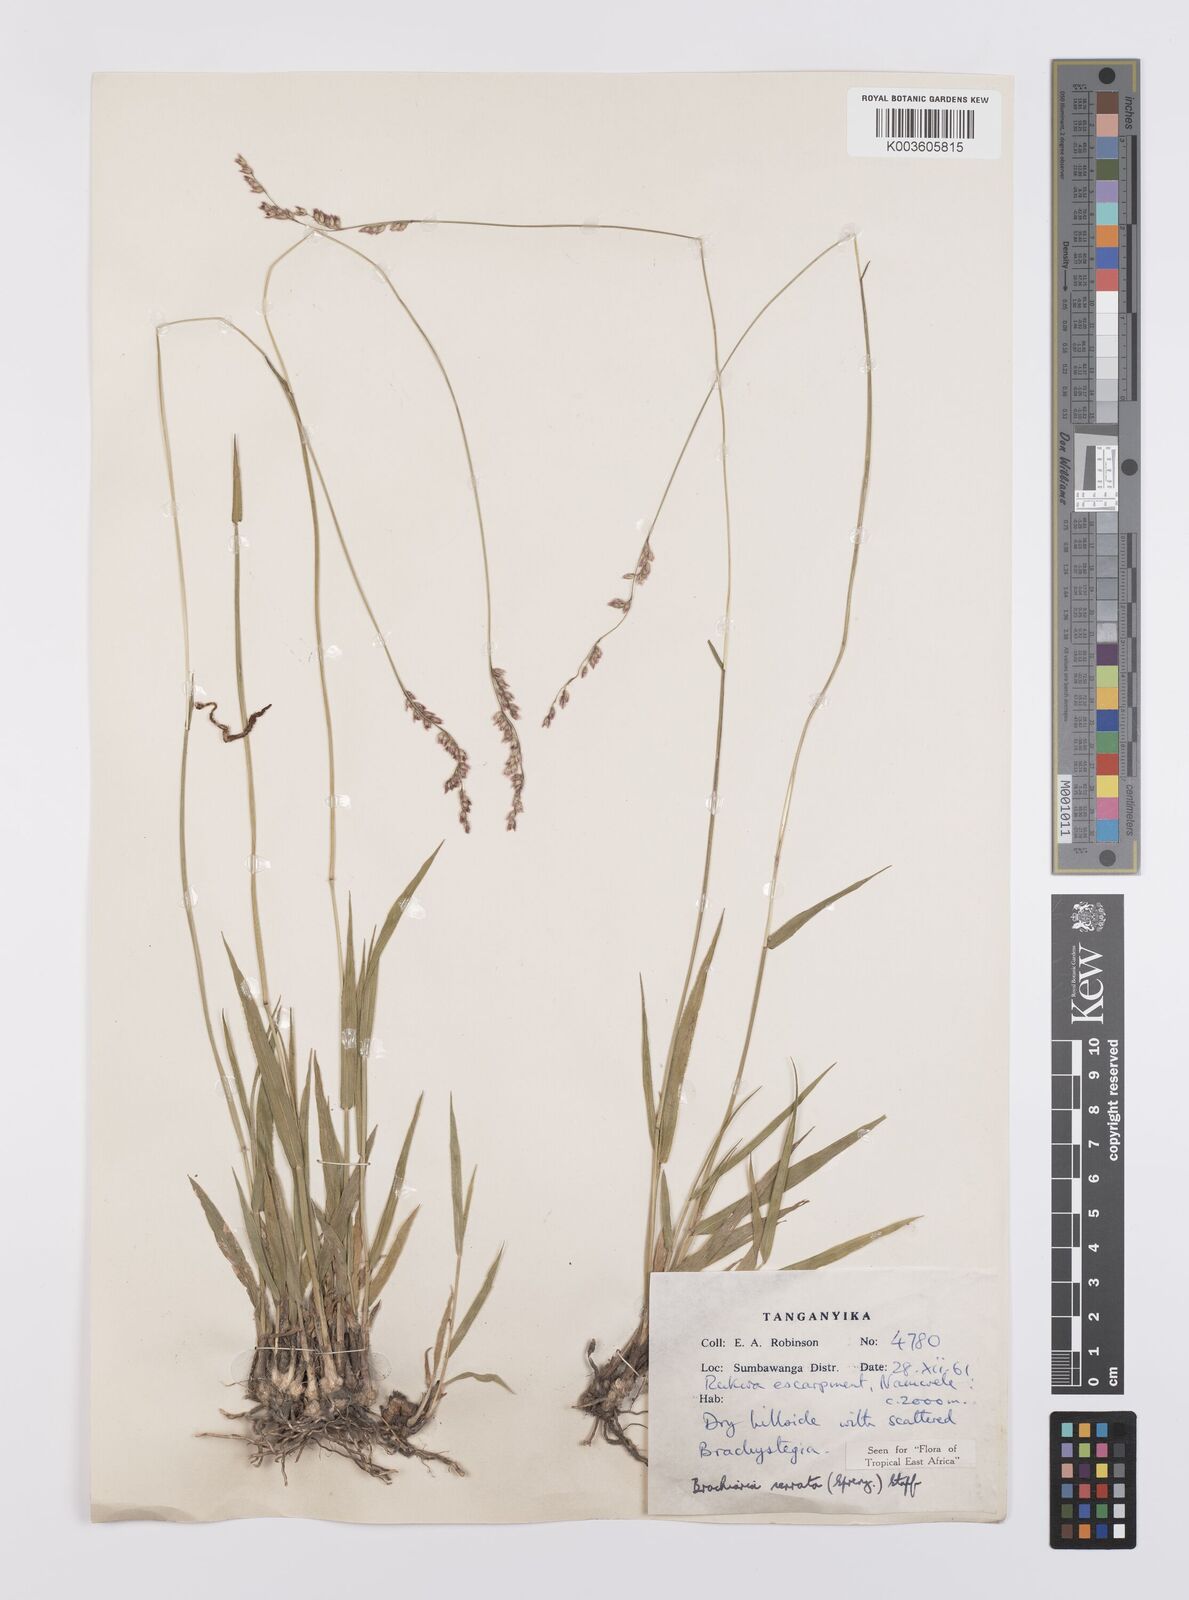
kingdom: Plantae
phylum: Tracheophyta
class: Liliopsida
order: Poales
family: Poaceae
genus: Urochloa
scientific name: Urochloa serrata
